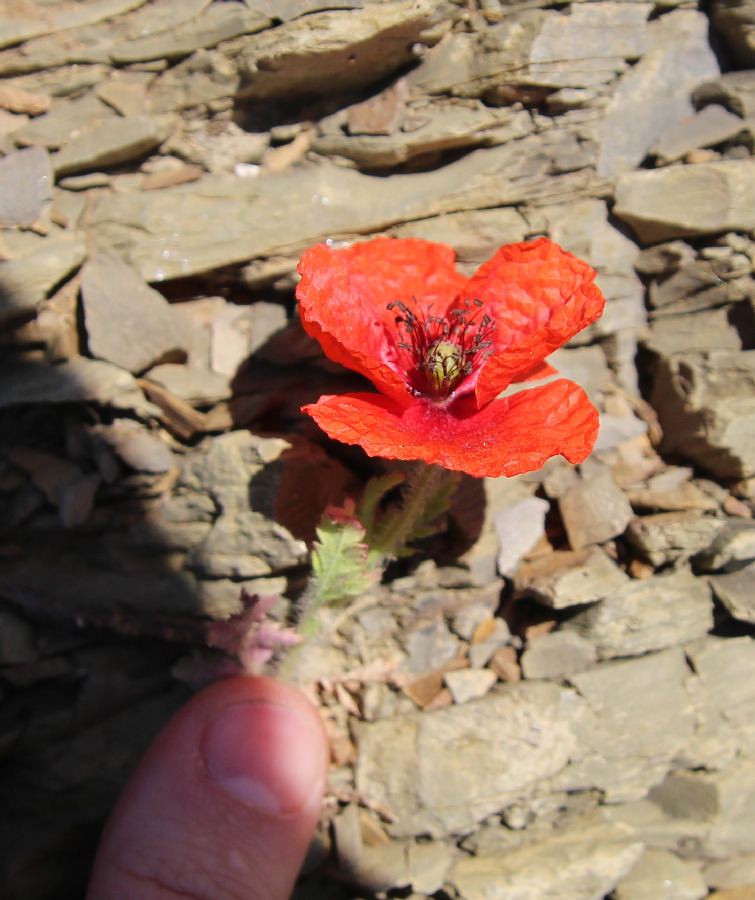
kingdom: Plantae
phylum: Tracheophyta
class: Magnoliopsida
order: Ranunculales
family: Papaveraceae
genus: Papaver
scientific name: Papaver rhoeas
